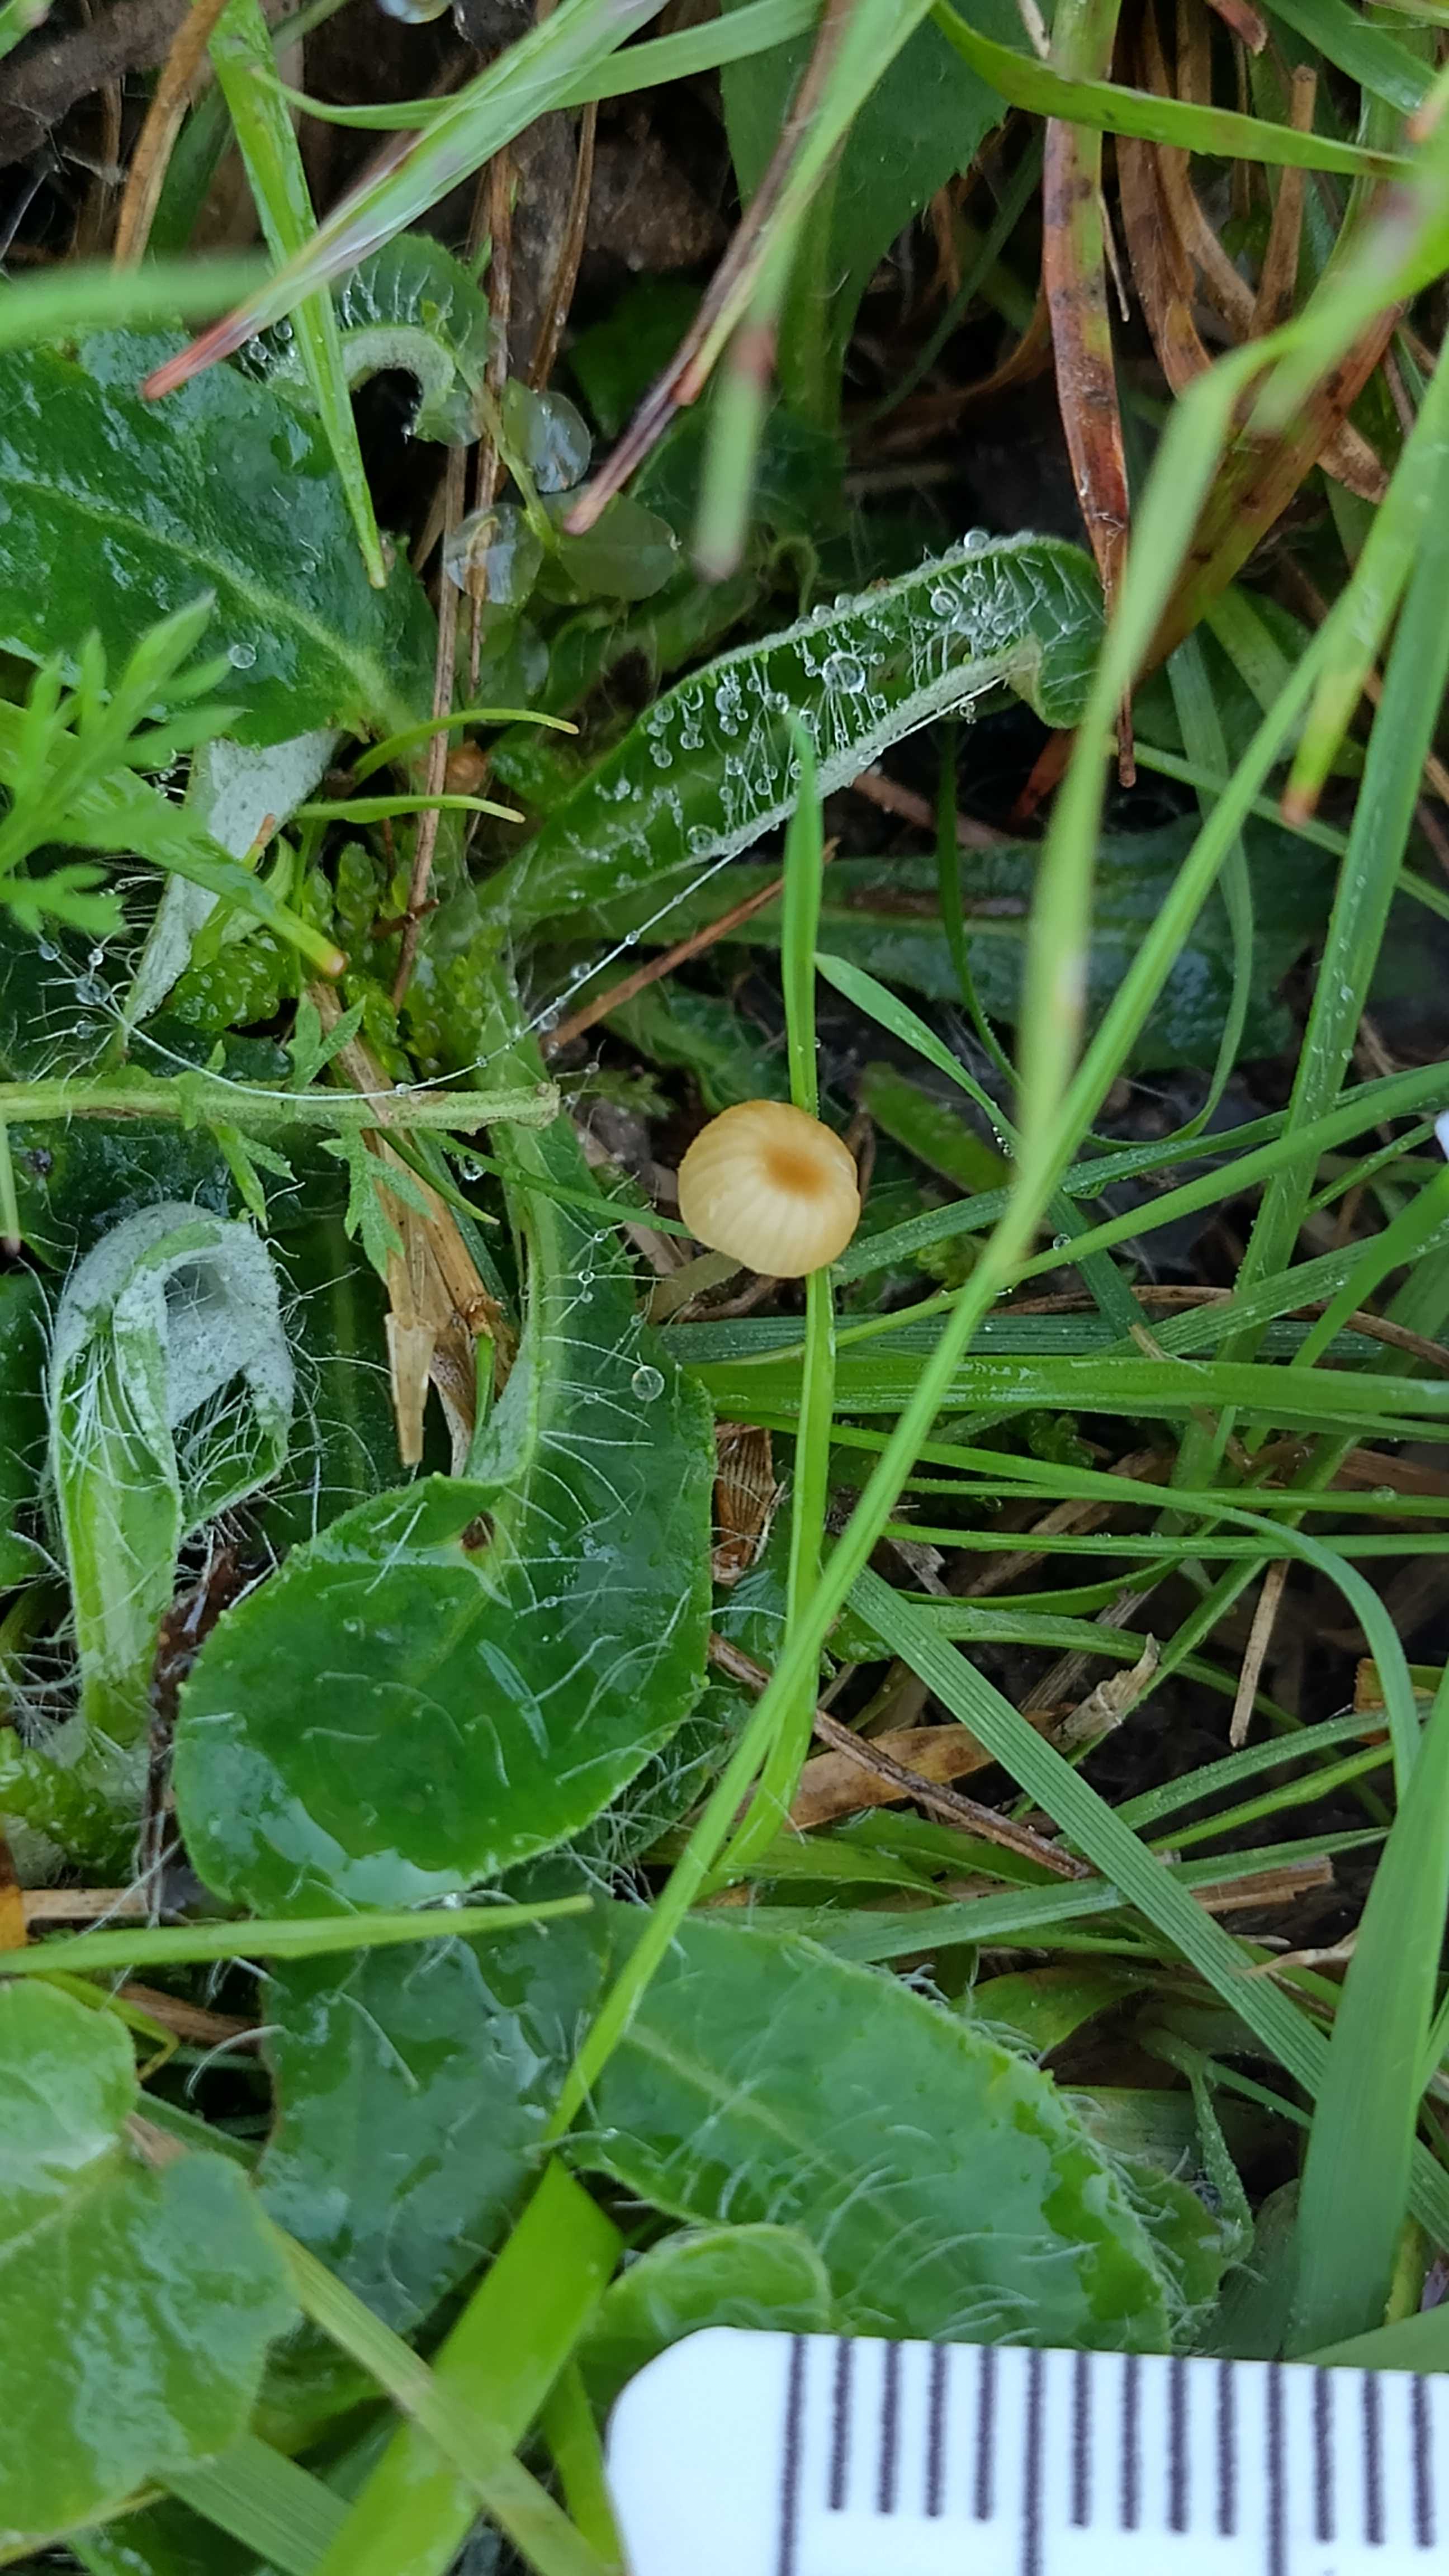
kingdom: Fungi
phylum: Basidiomycota
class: Agaricomycetes
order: Hymenochaetales
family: Rickenellaceae
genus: Rickenella
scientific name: Rickenella fibula
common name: orange mosnavlehat
